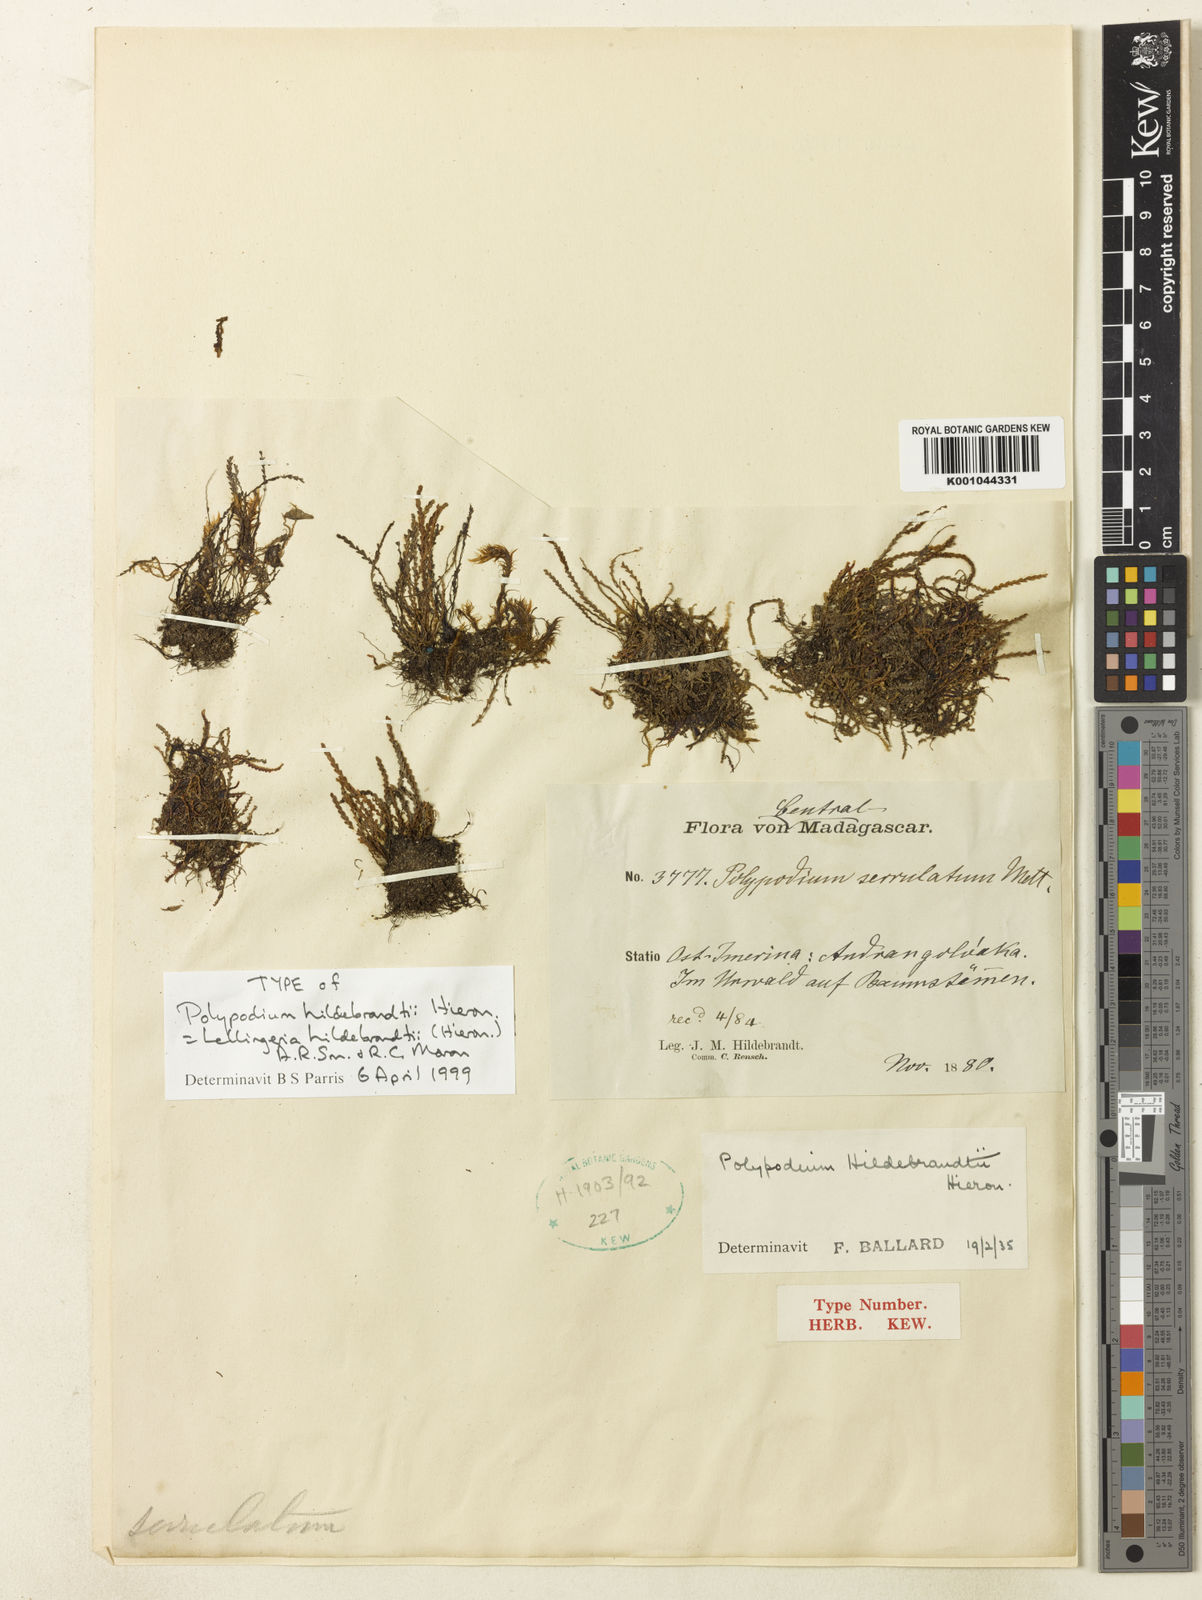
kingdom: Plantae
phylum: Tracheophyta
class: Polypodiopsida
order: Polypodiales
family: Polypodiaceae
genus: Cochlidium
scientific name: Cochlidium
